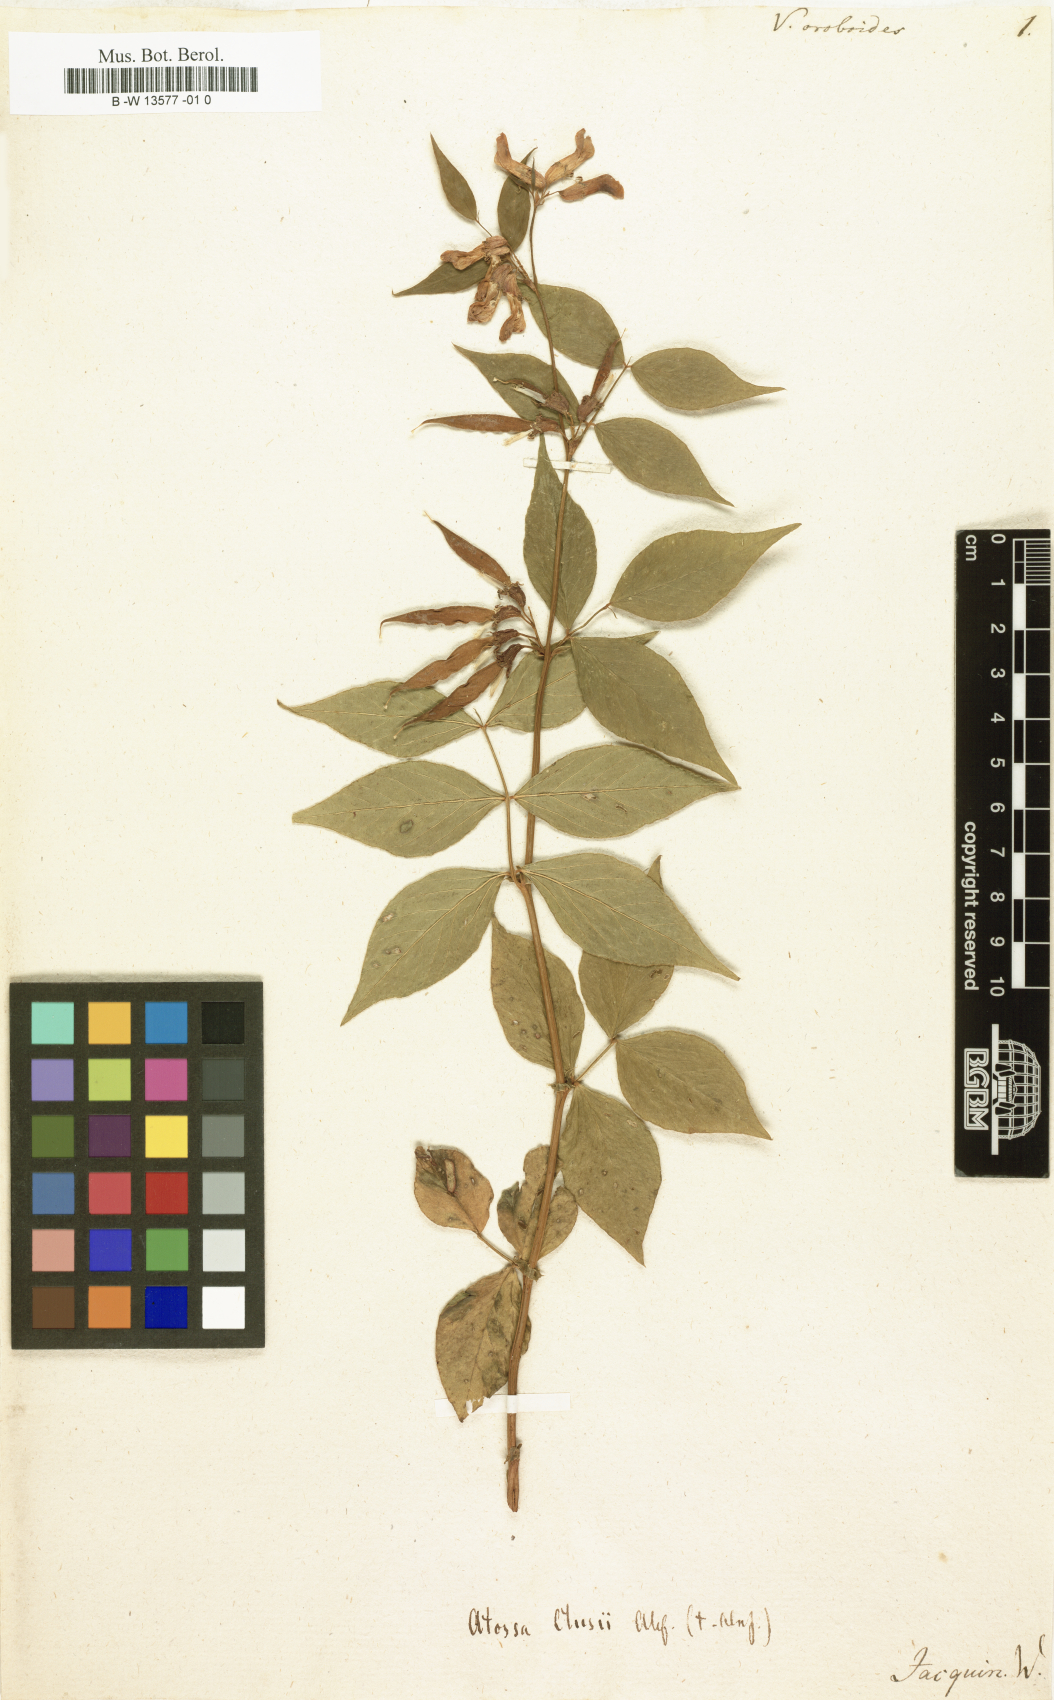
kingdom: Plantae
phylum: Tracheophyta
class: Magnoliopsida
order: Fabales
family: Fabaceae
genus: Vicia
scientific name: Vicia oroboides
